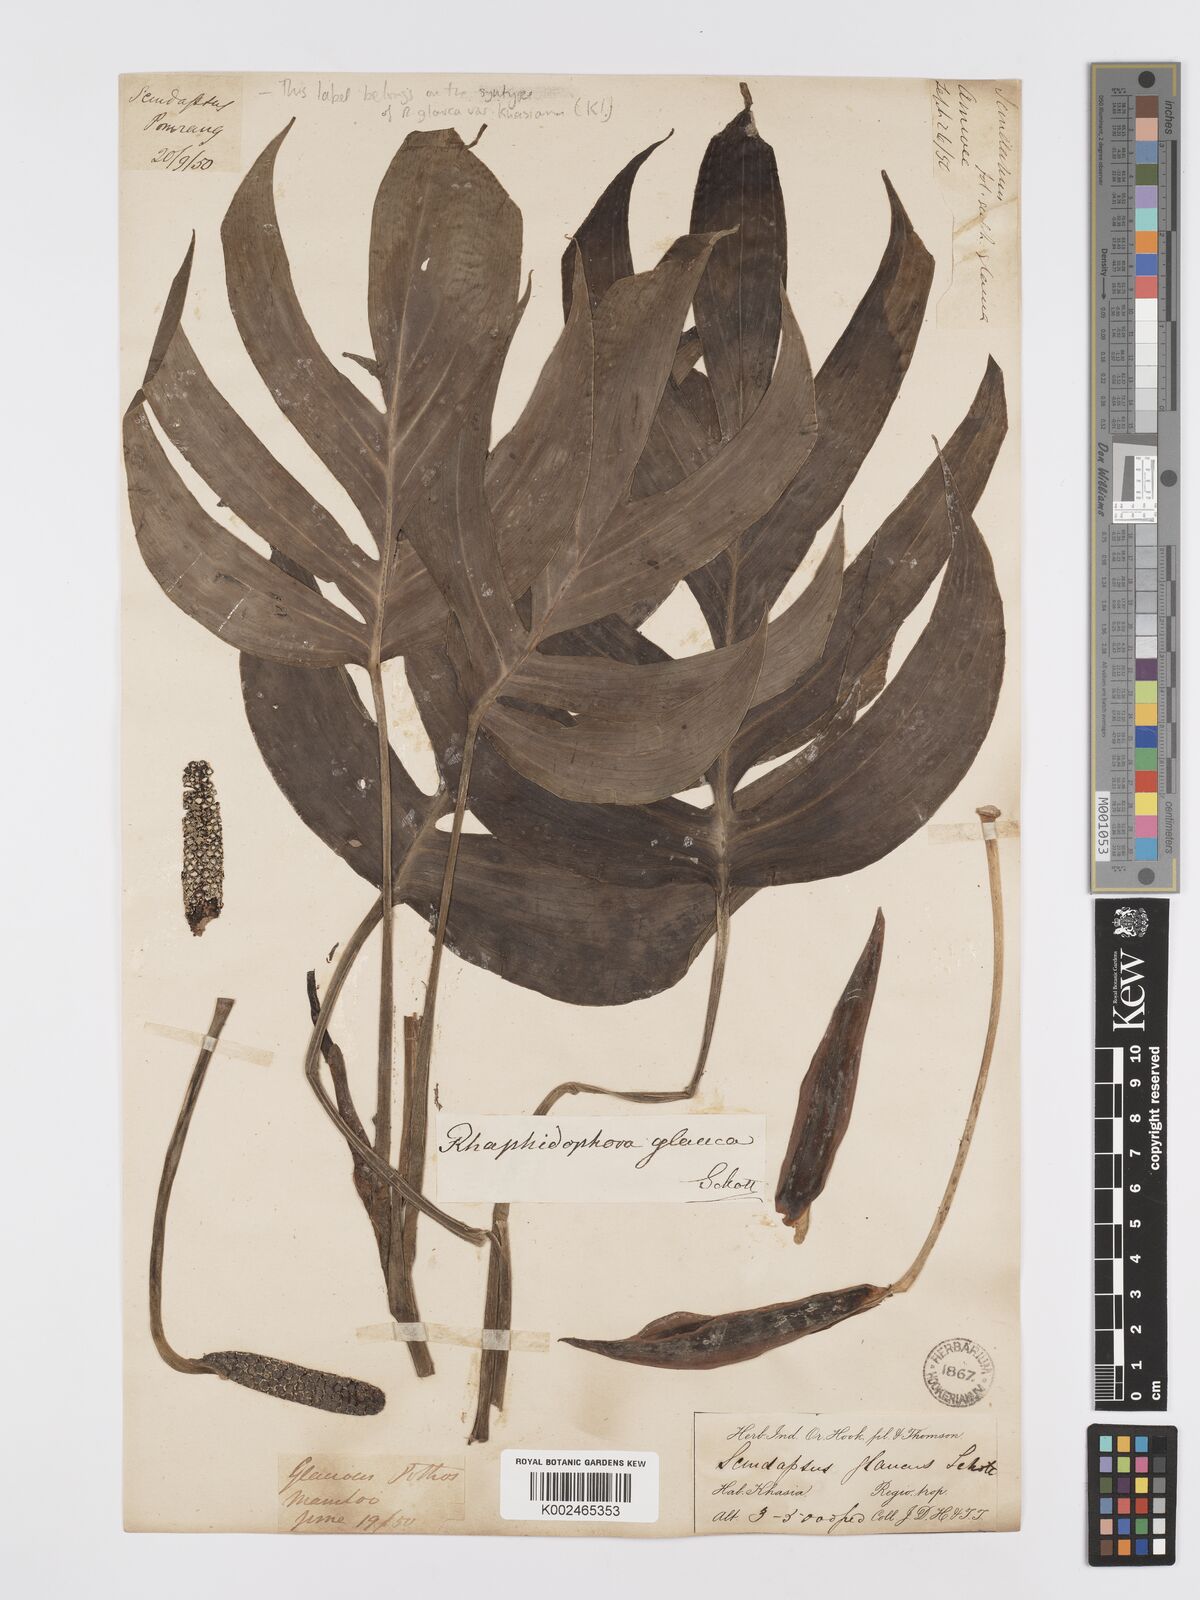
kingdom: Plantae
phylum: Tracheophyta
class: Liliopsida
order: Alismatales
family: Araceae
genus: Rhaphidophora
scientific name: Rhaphidophora glauca
